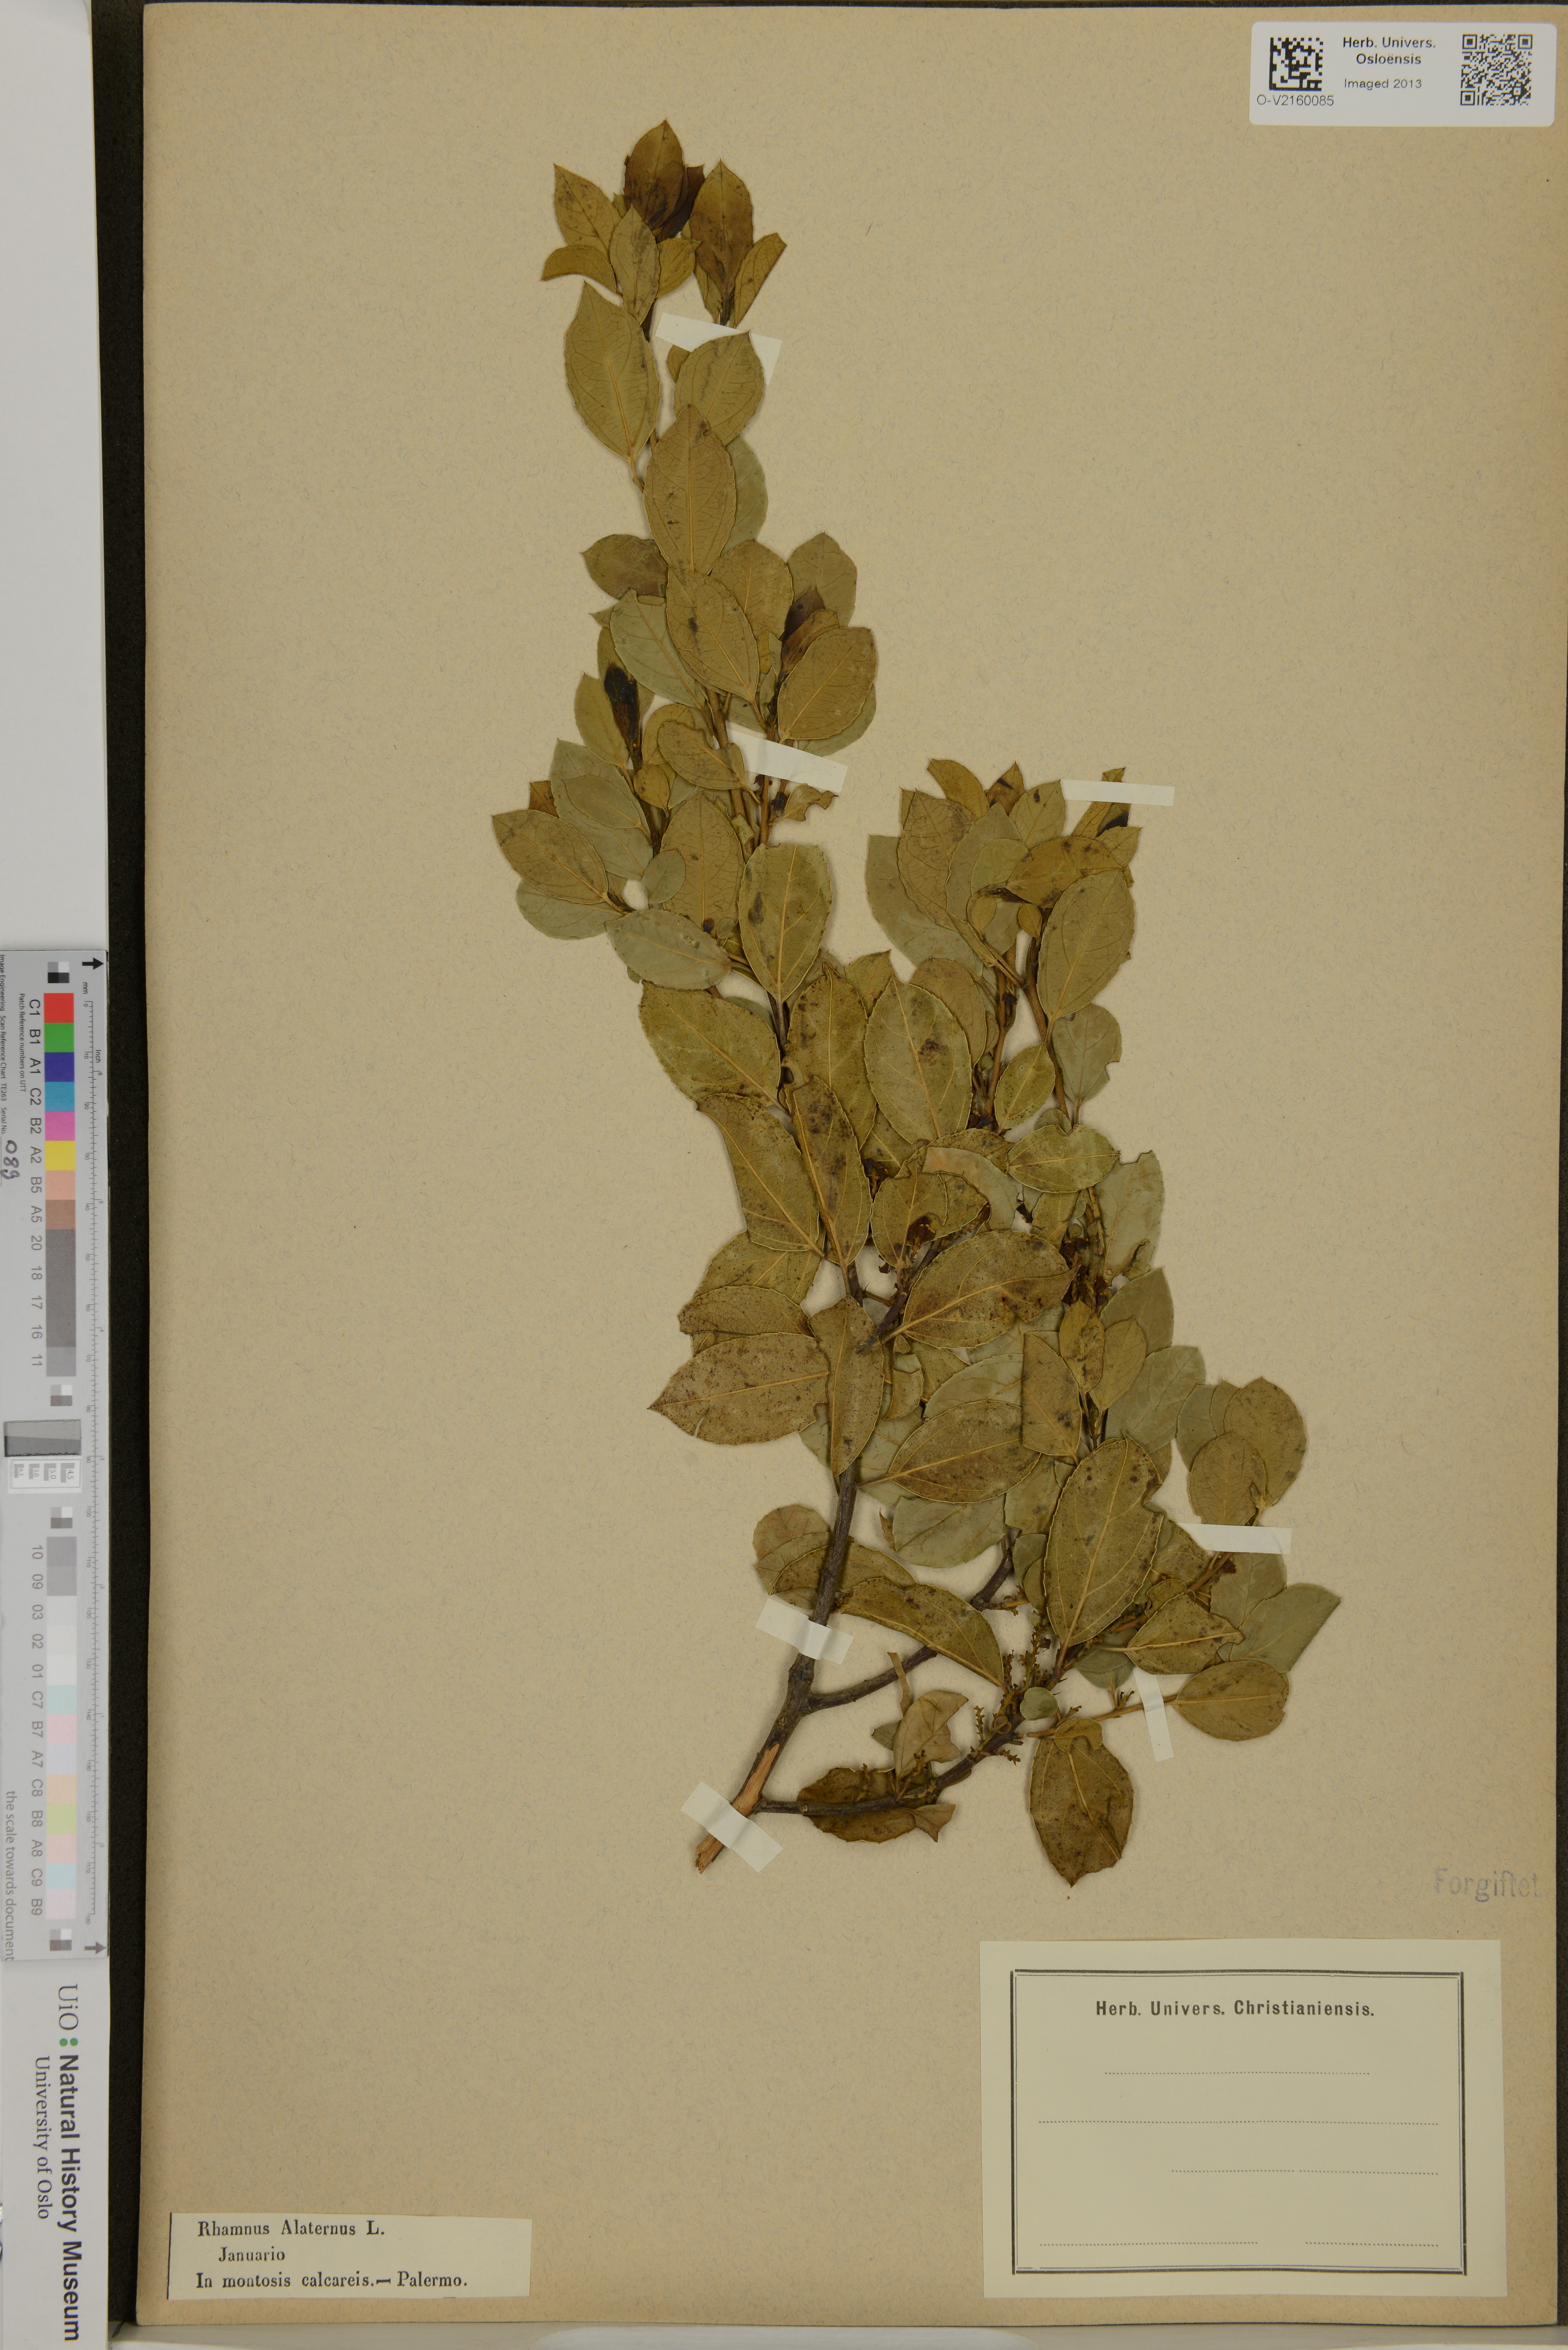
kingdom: Plantae
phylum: Tracheophyta
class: Magnoliopsida
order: Rosales
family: Rhamnaceae
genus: Rhamnus
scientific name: Rhamnus alaternus
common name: Mediterranean buckthorn
